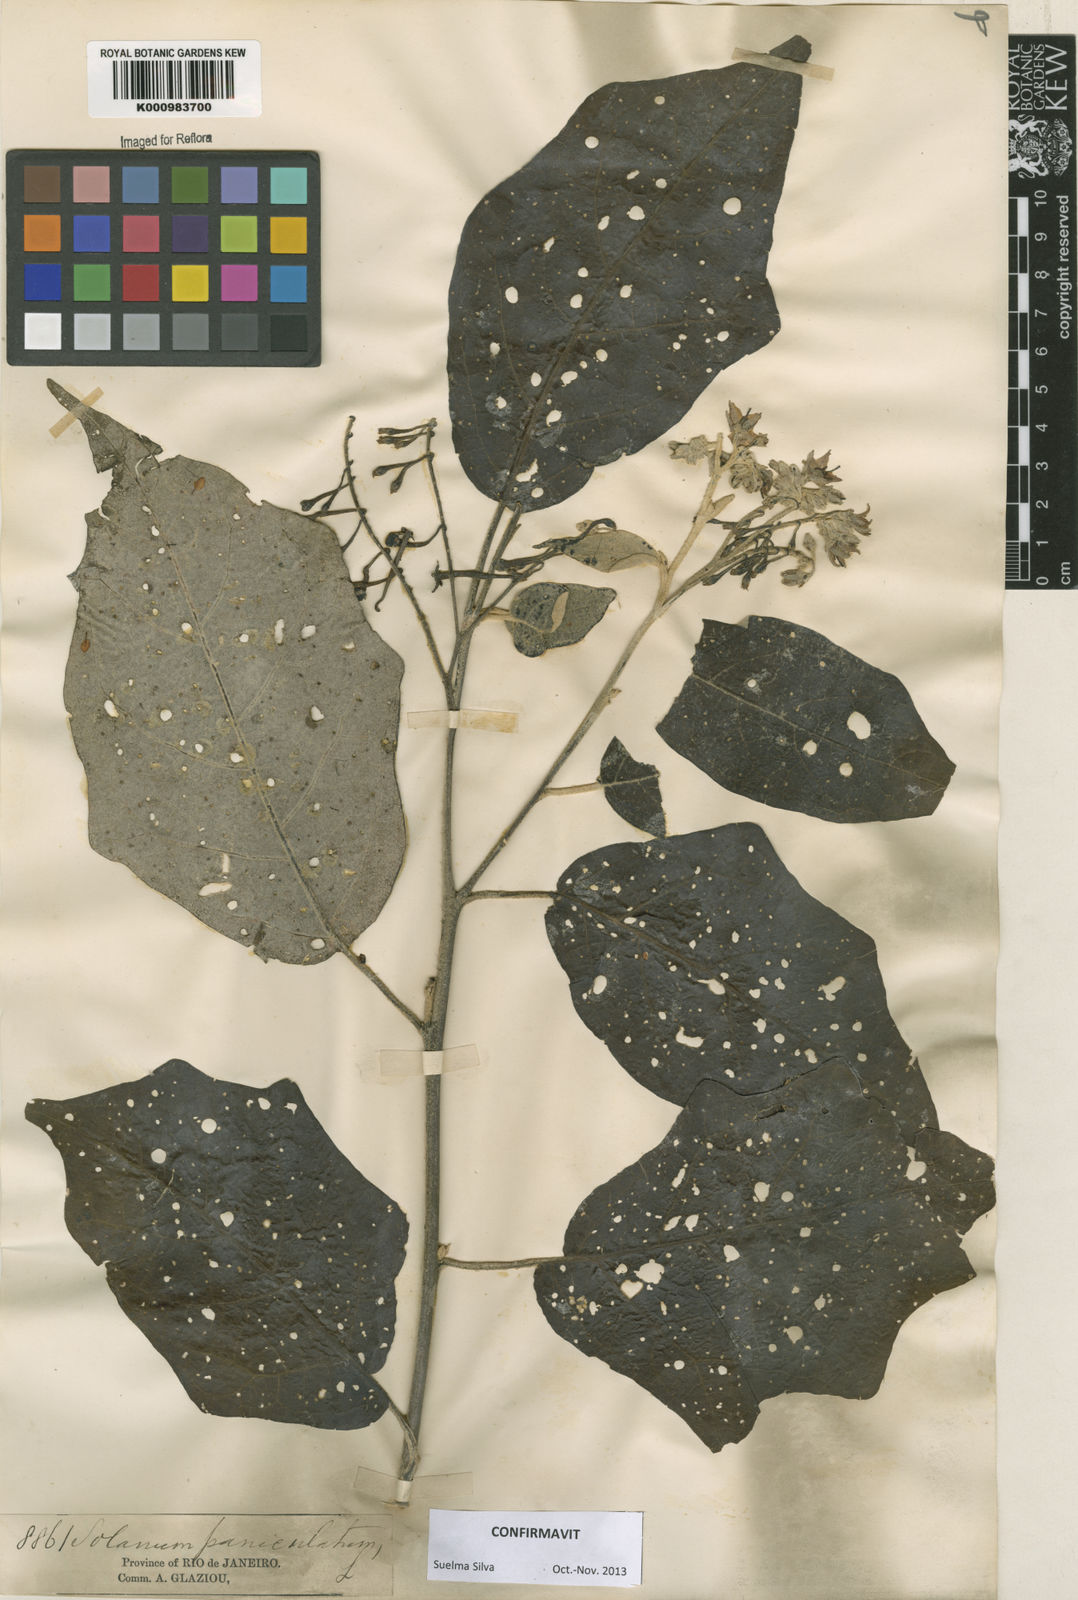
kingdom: Plantae
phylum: Tracheophyta
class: Magnoliopsida
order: Solanales
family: Solanaceae
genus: Solanum
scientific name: Solanum paniculatum
